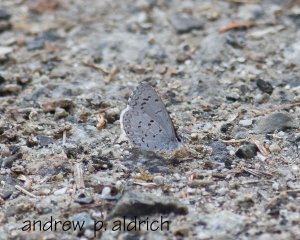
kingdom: Animalia
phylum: Arthropoda
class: Insecta
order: Lepidoptera
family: Lycaenidae
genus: Celastrina
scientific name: Celastrina lucia
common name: Northern Spring Azure
